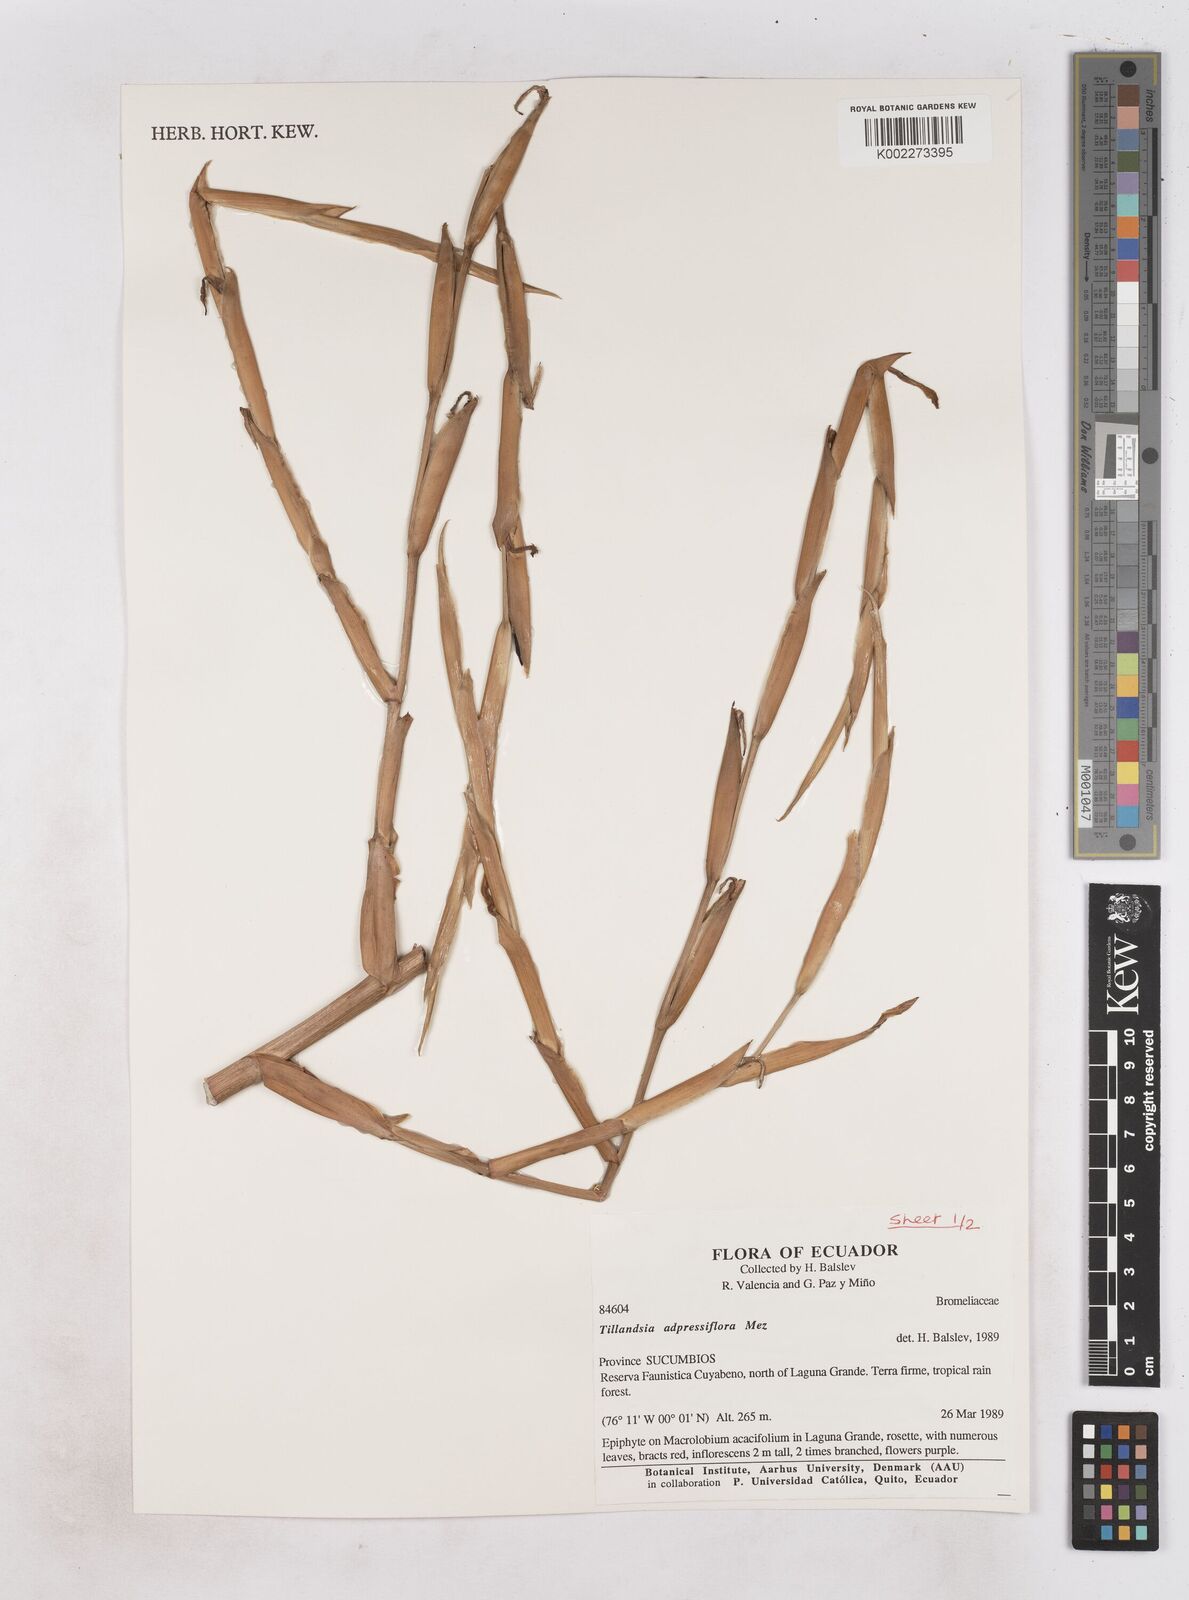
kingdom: Plantae
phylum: Tracheophyta
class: Liliopsida
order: Poales
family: Bromeliaceae
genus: Tillandsia
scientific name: Tillandsia adpressiflora
